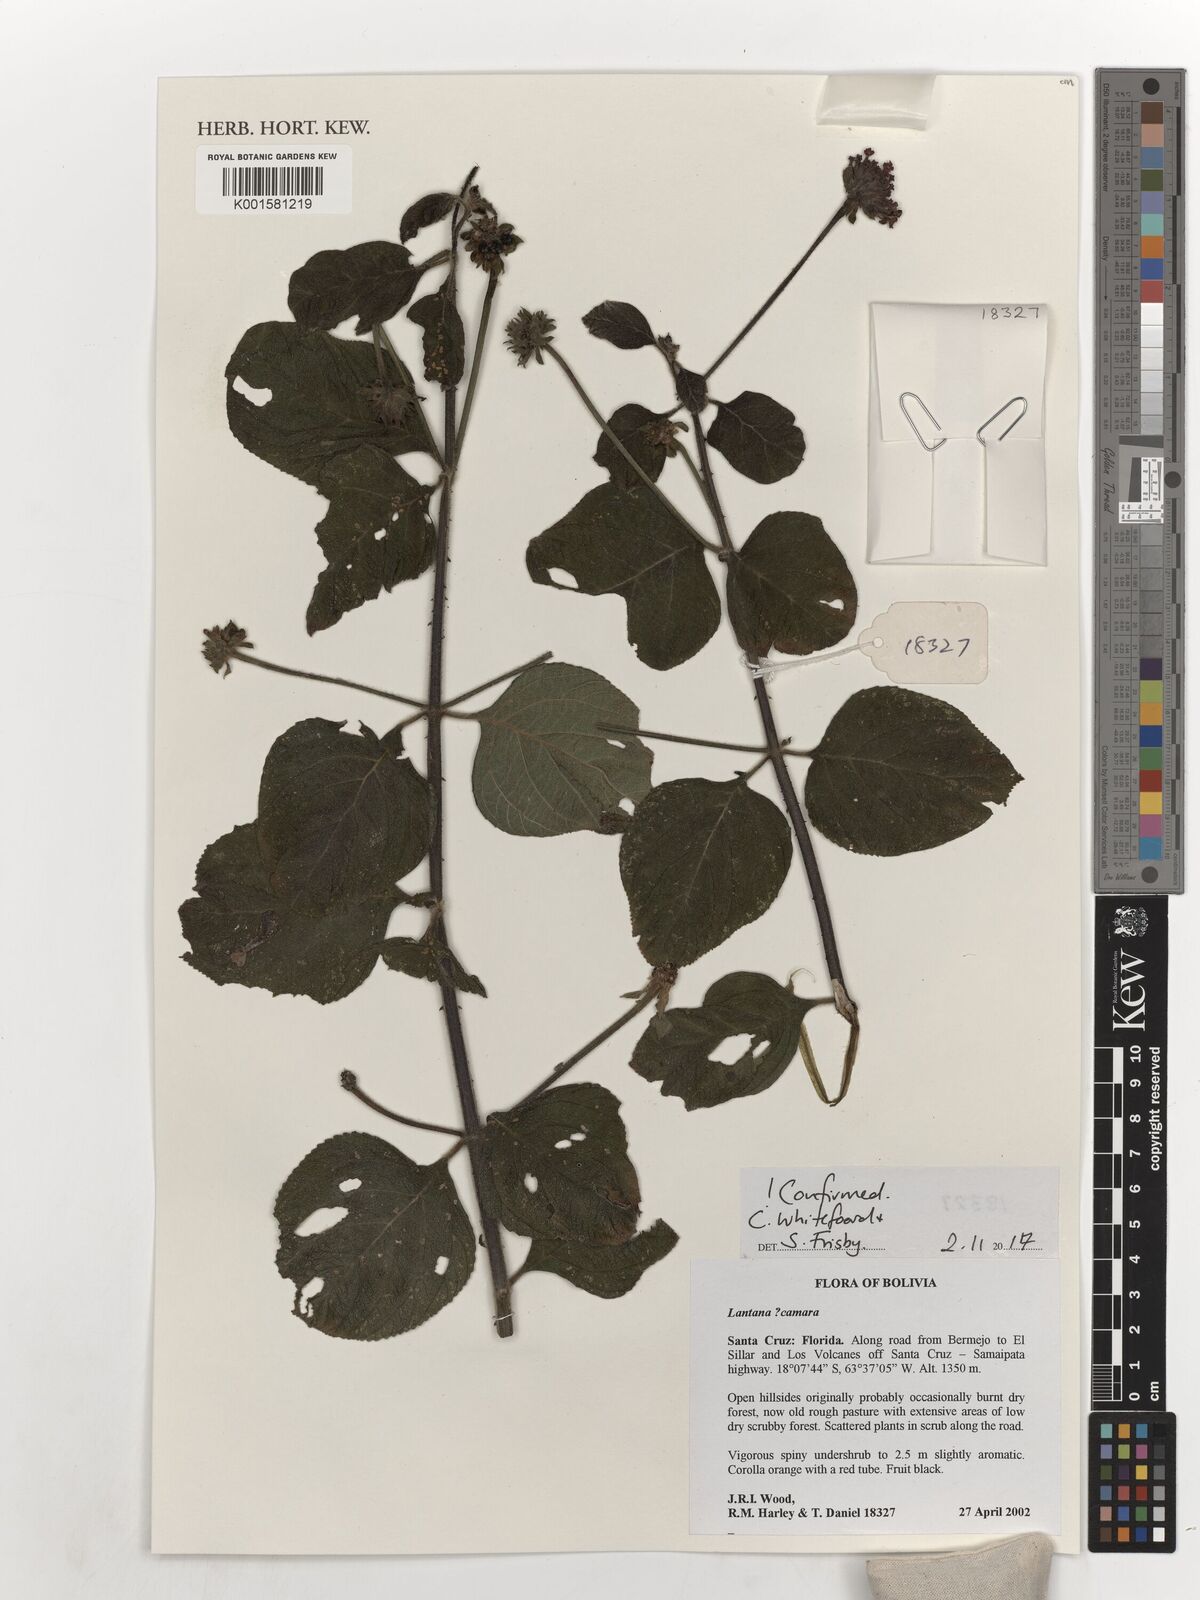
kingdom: Plantae
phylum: Tracheophyta
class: Magnoliopsida
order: Lamiales
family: Verbenaceae
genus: Lantana
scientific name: Lantana camara
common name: Lantana
